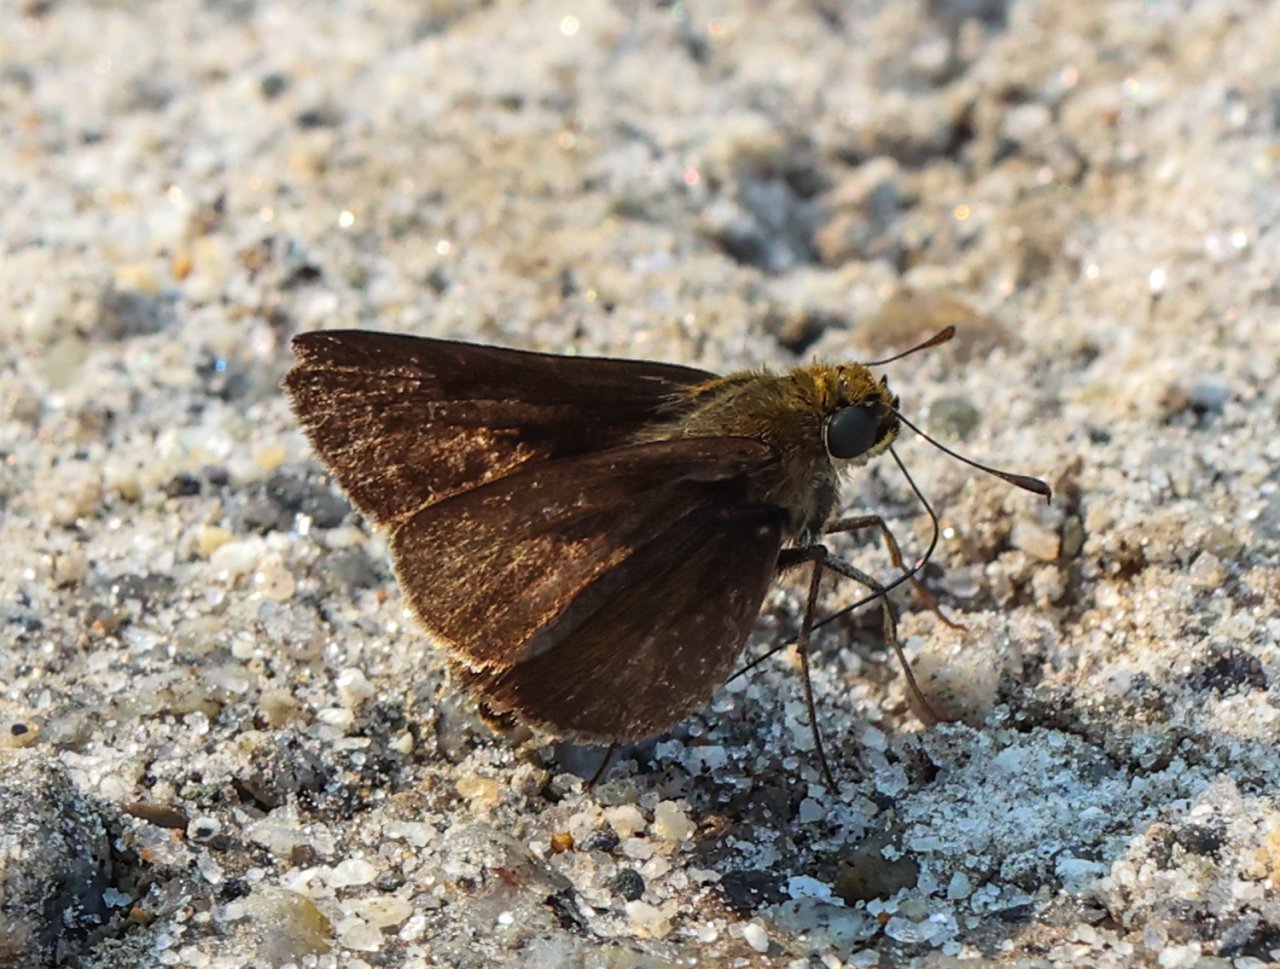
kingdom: Animalia
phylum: Arthropoda
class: Insecta
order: Lepidoptera
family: Hesperiidae
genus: Euphyes
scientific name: Euphyes vestris
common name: Dun Skipper
